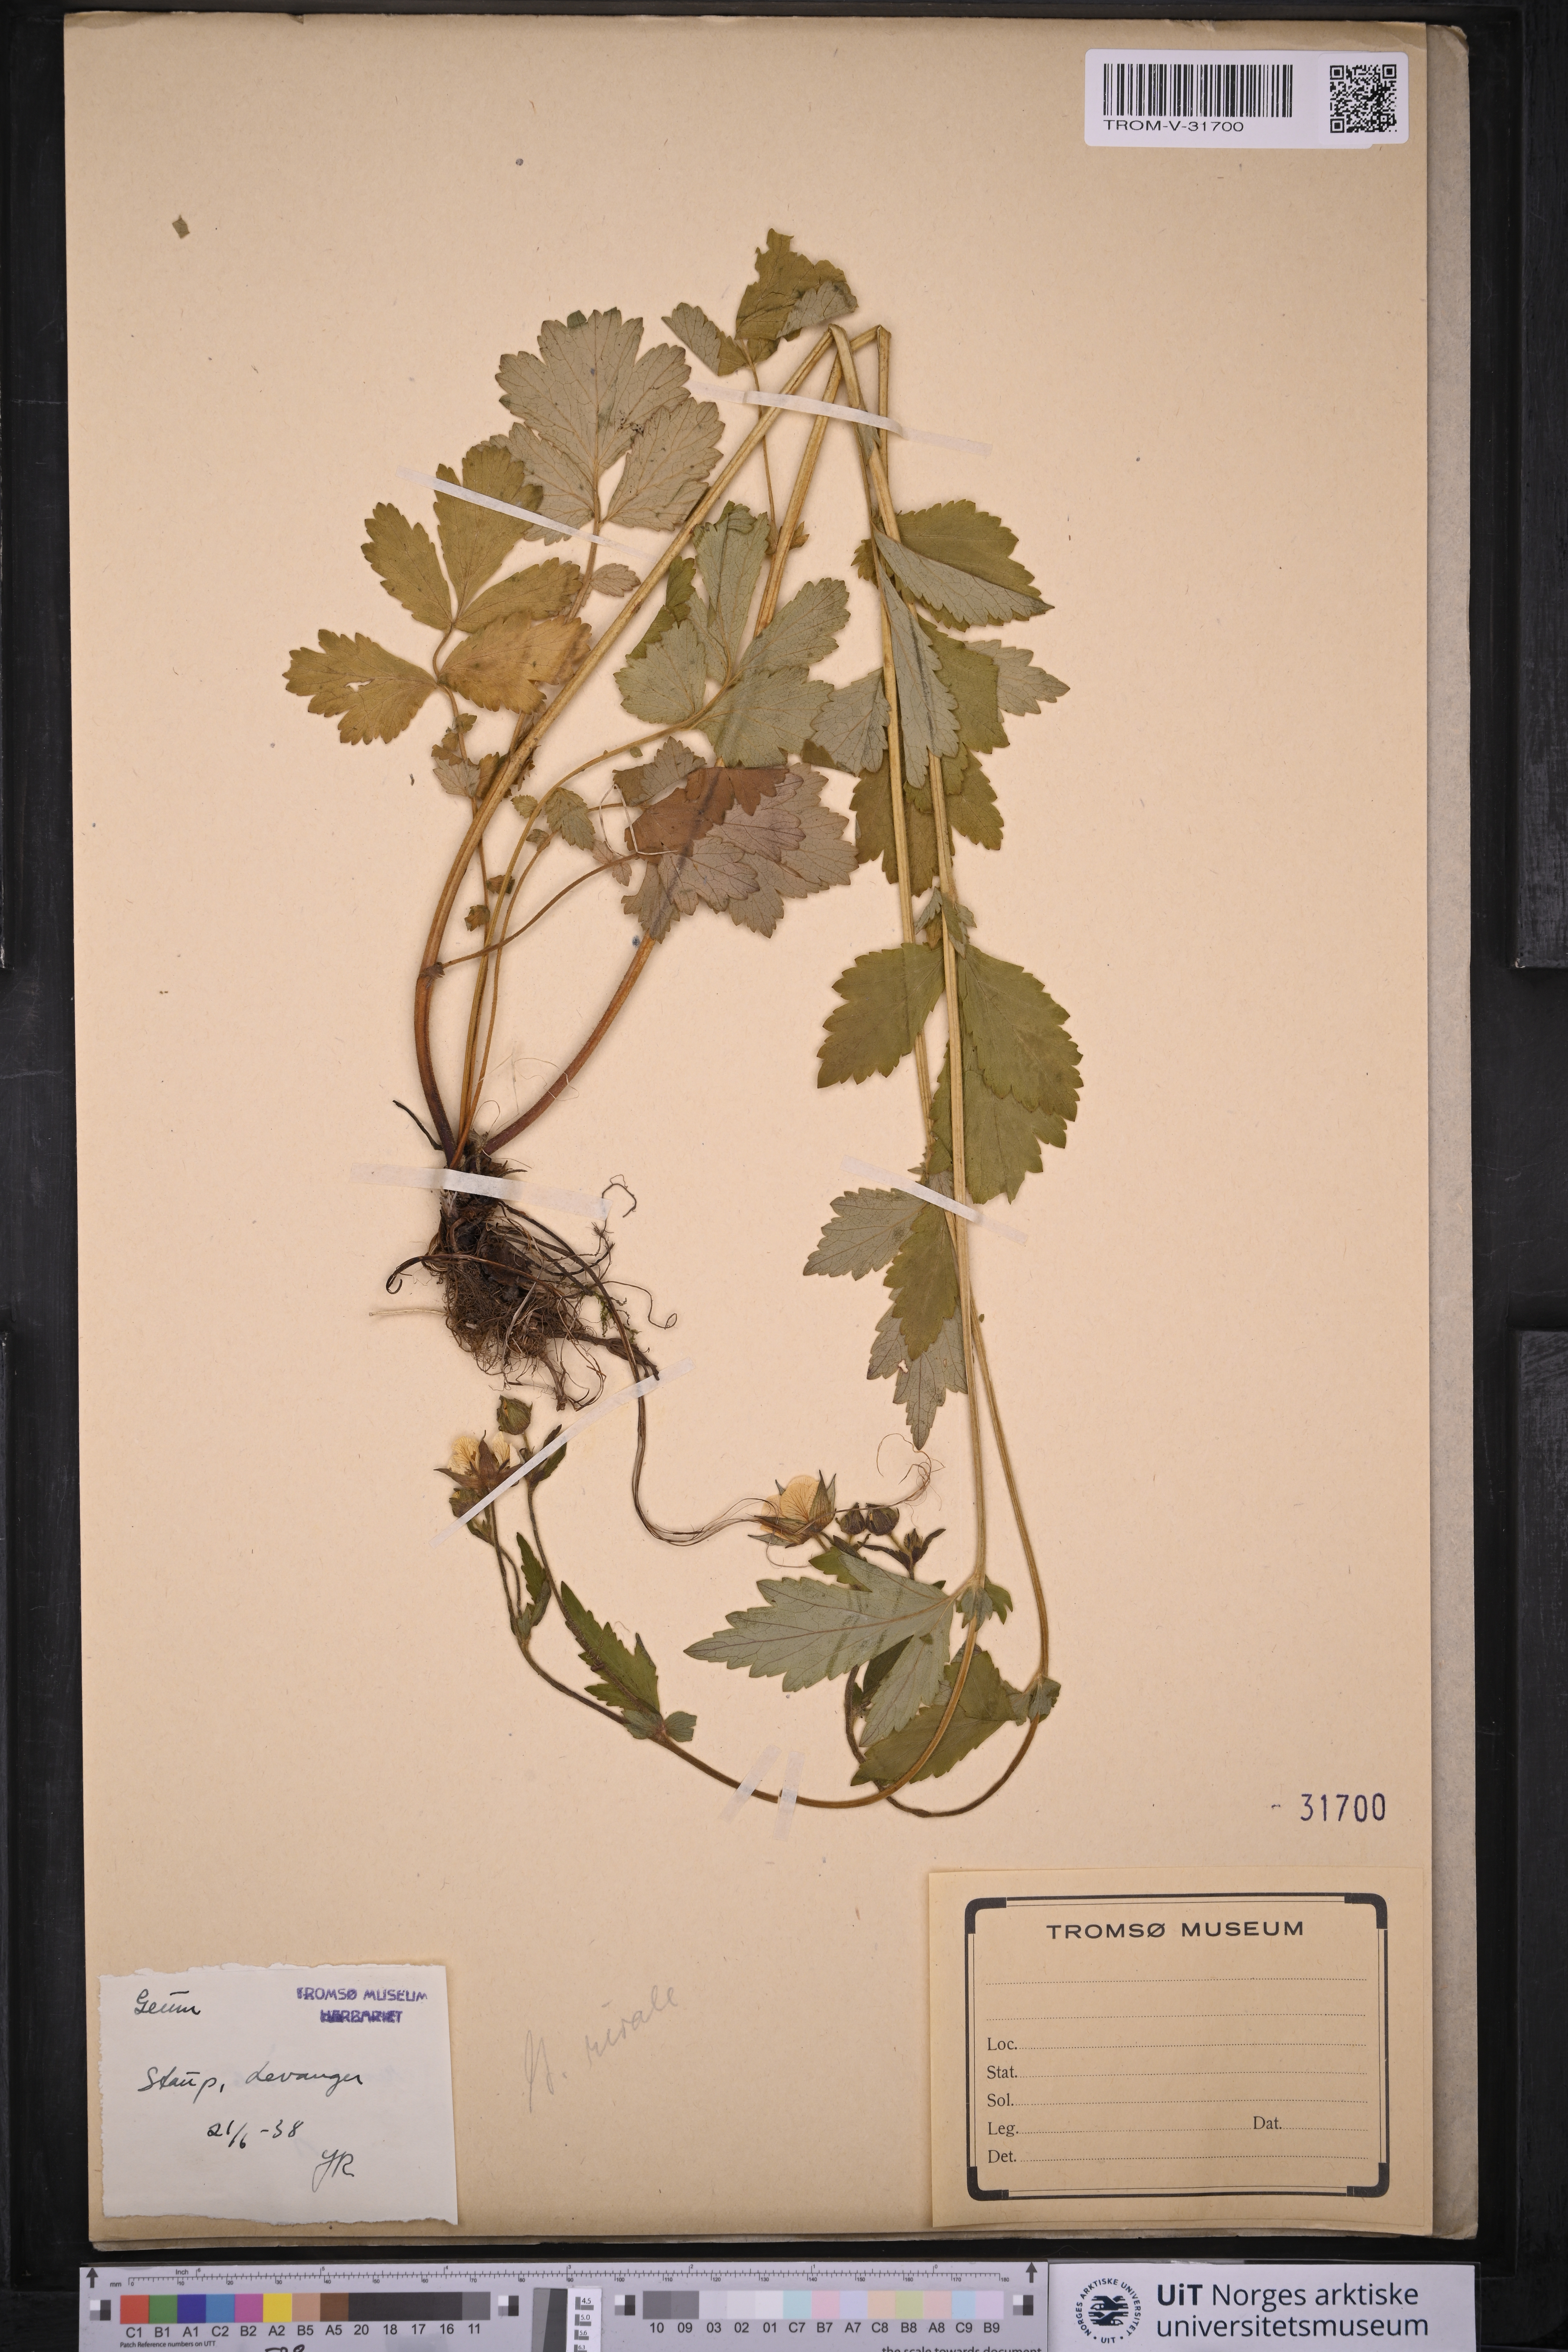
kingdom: Plantae
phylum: Tracheophyta
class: Magnoliopsida
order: Rosales
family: Rosaceae
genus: Geum
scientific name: Geum rivale
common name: Water avens
